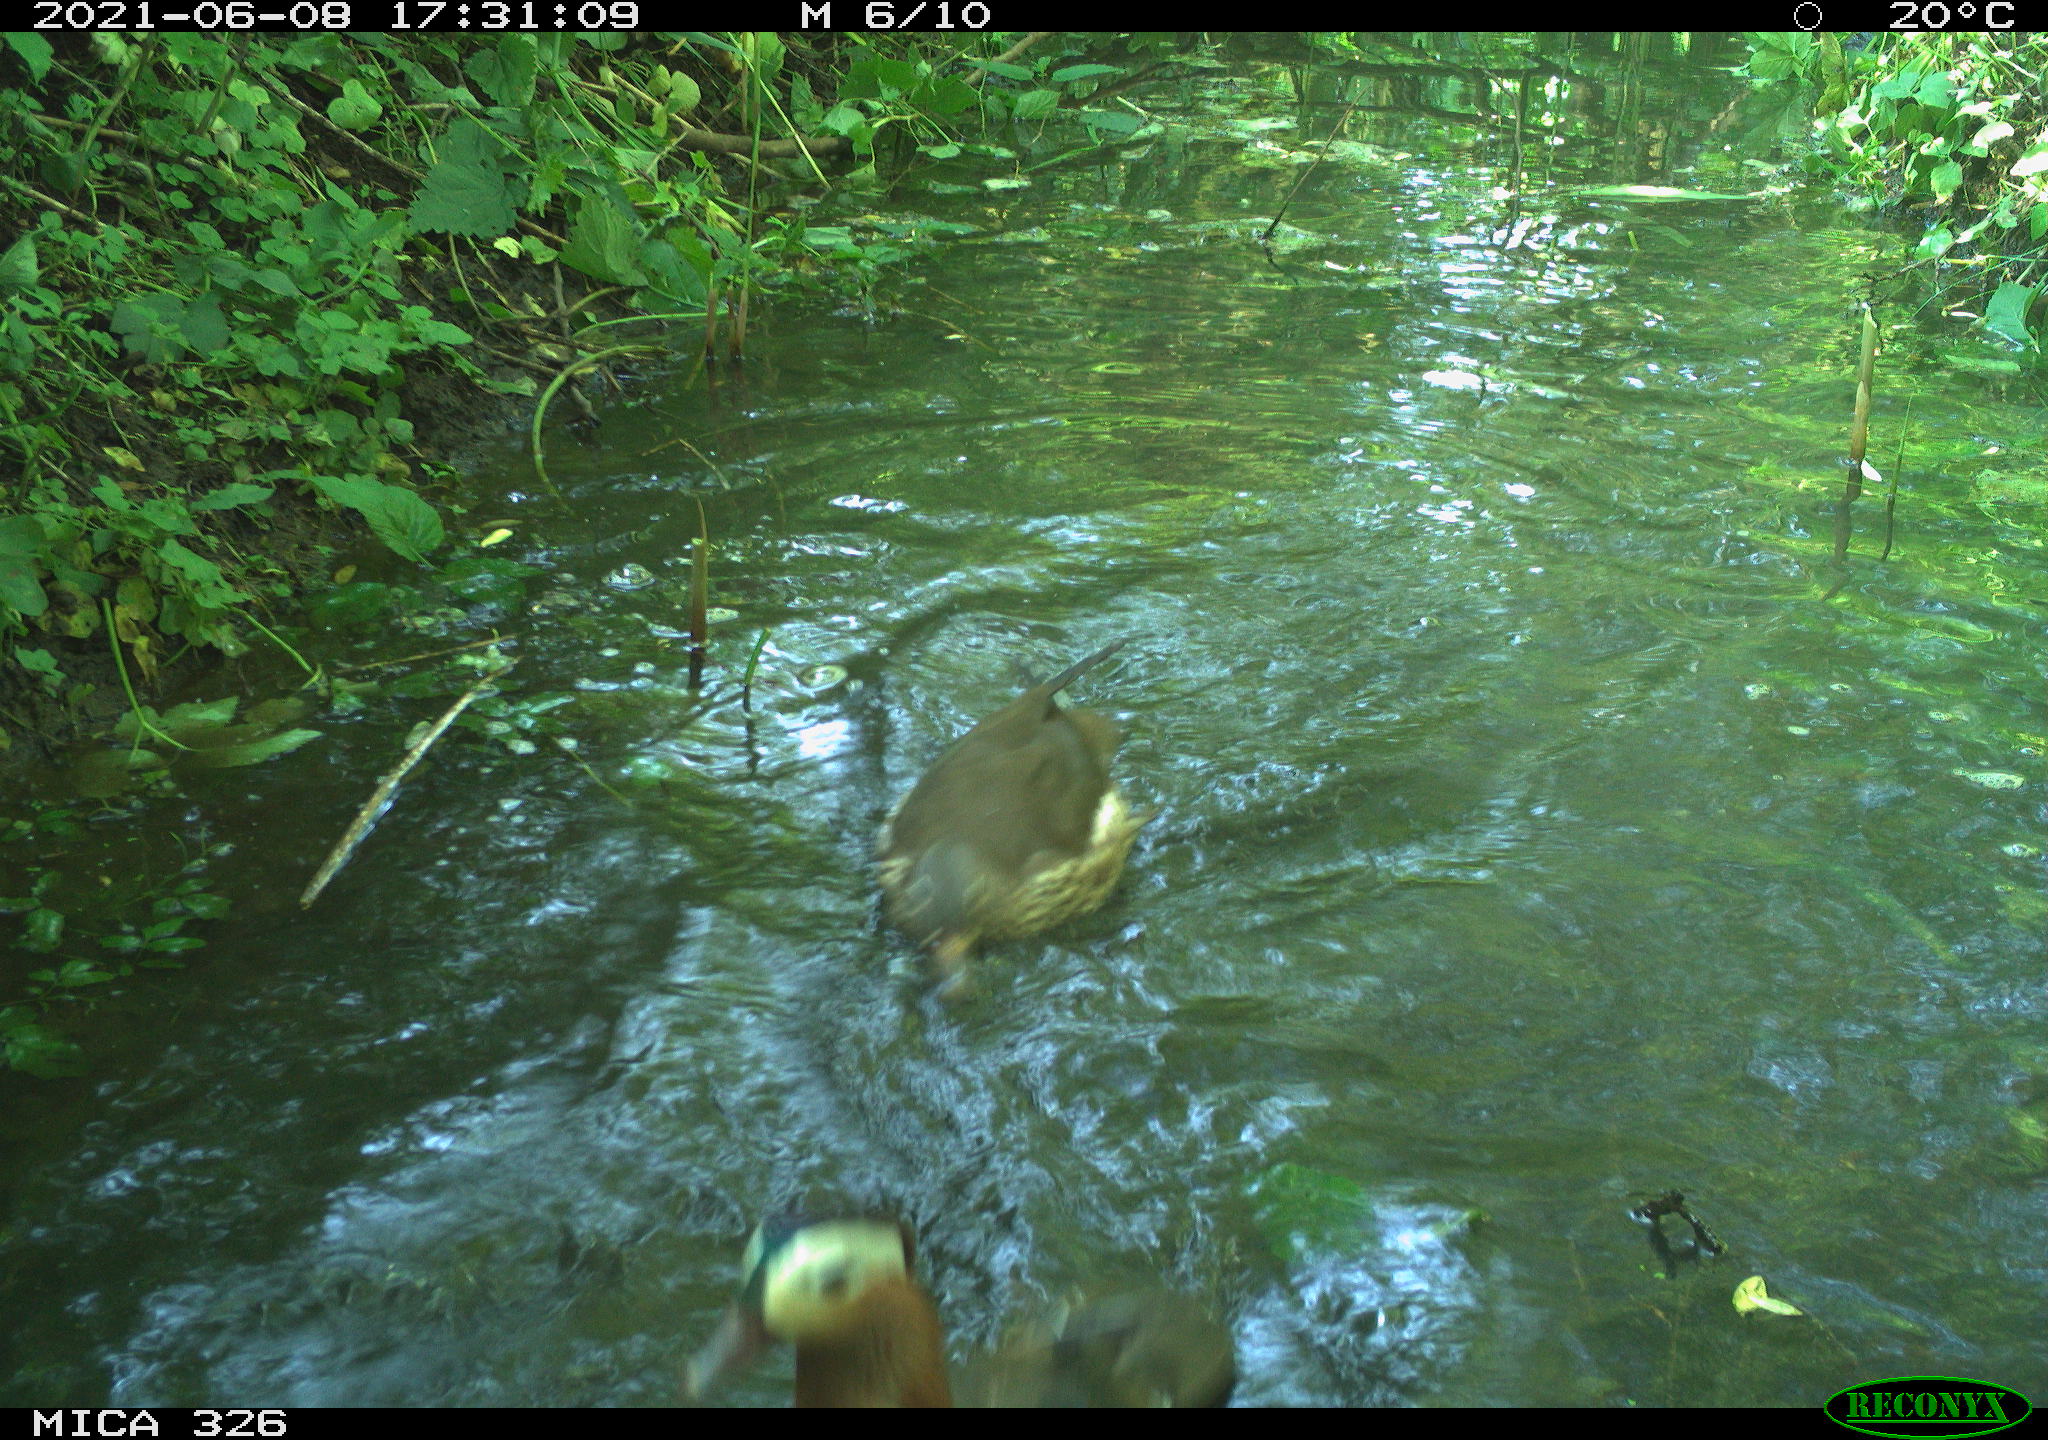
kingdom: Animalia
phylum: Chordata
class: Aves
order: Anseriformes
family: Anatidae
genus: Aix
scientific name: Aix galericulata
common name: Mandarin duck
